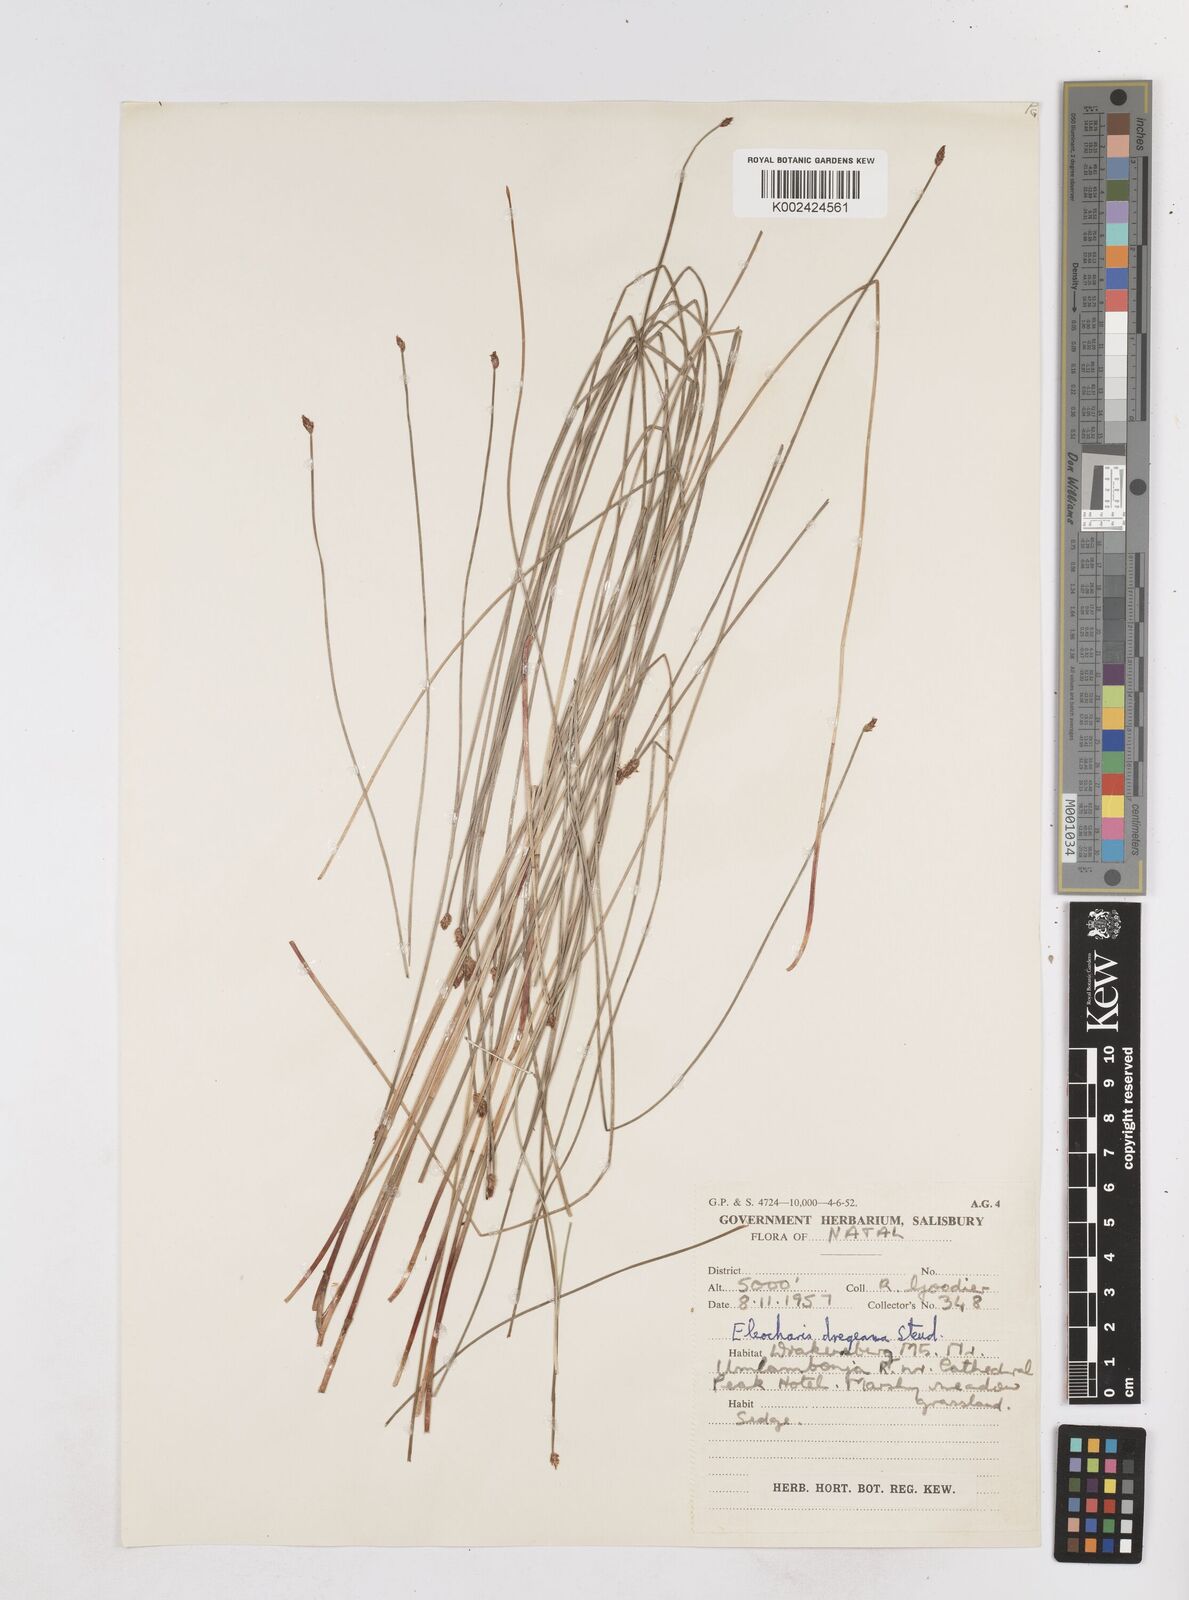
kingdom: Plantae
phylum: Tracheophyta
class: Liliopsida
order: Poales
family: Cyperaceae
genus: Eleocharis
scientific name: Eleocharis
